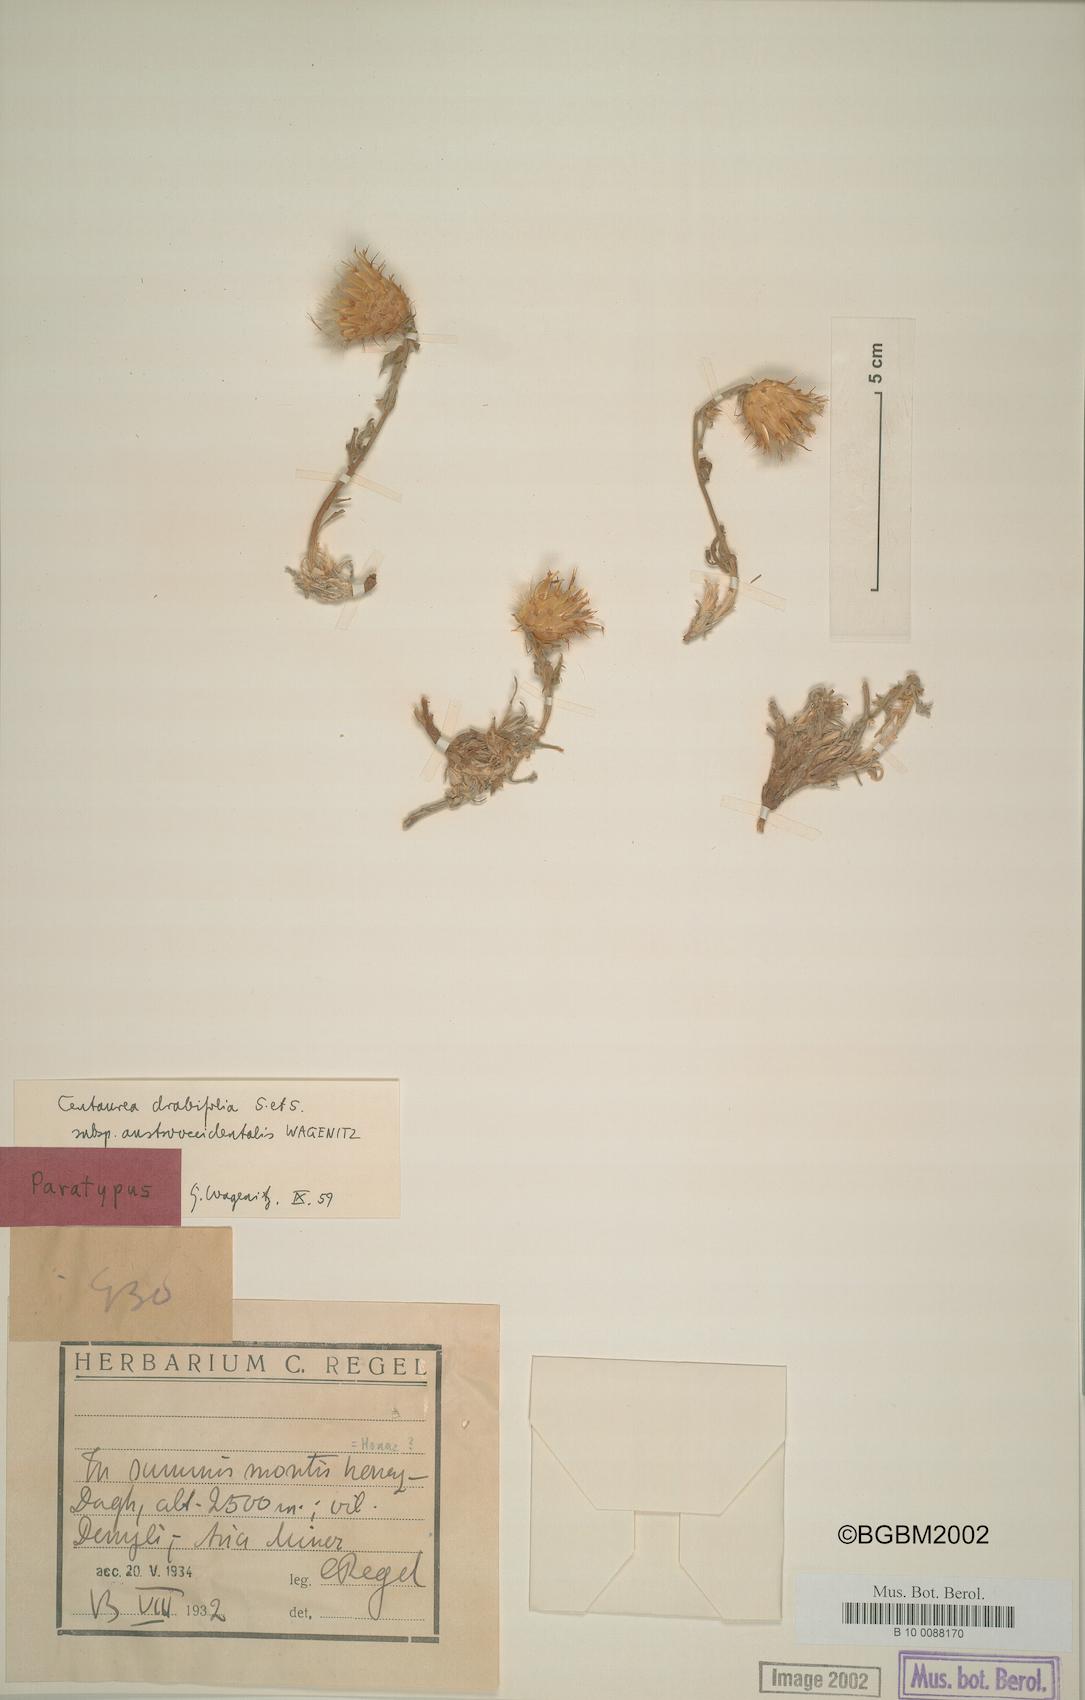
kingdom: Plantae
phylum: Tracheophyta
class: Magnoliopsida
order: Asterales
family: Asteraceae
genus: Centaurea
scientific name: Centaurea drabifolia
